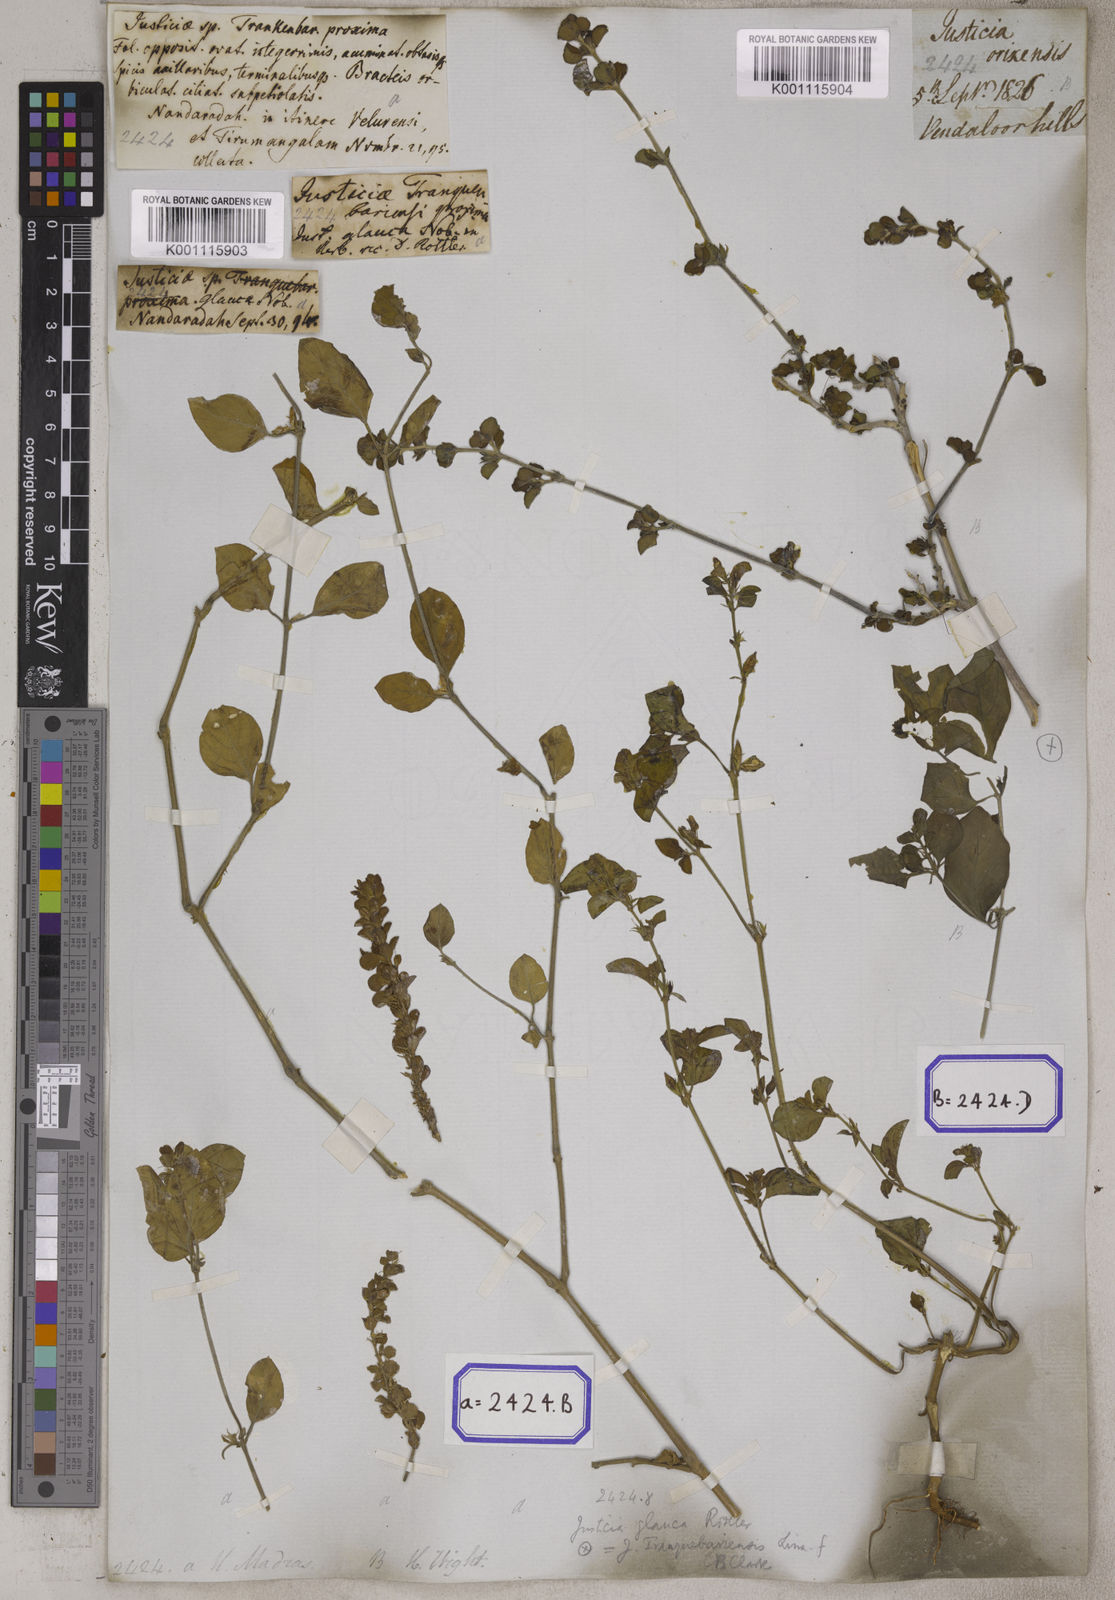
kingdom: Plantae
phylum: Tracheophyta
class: Magnoliopsida
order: Lamiales
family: Acanthaceae
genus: Justicia
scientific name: Justicia tranquebariensis
